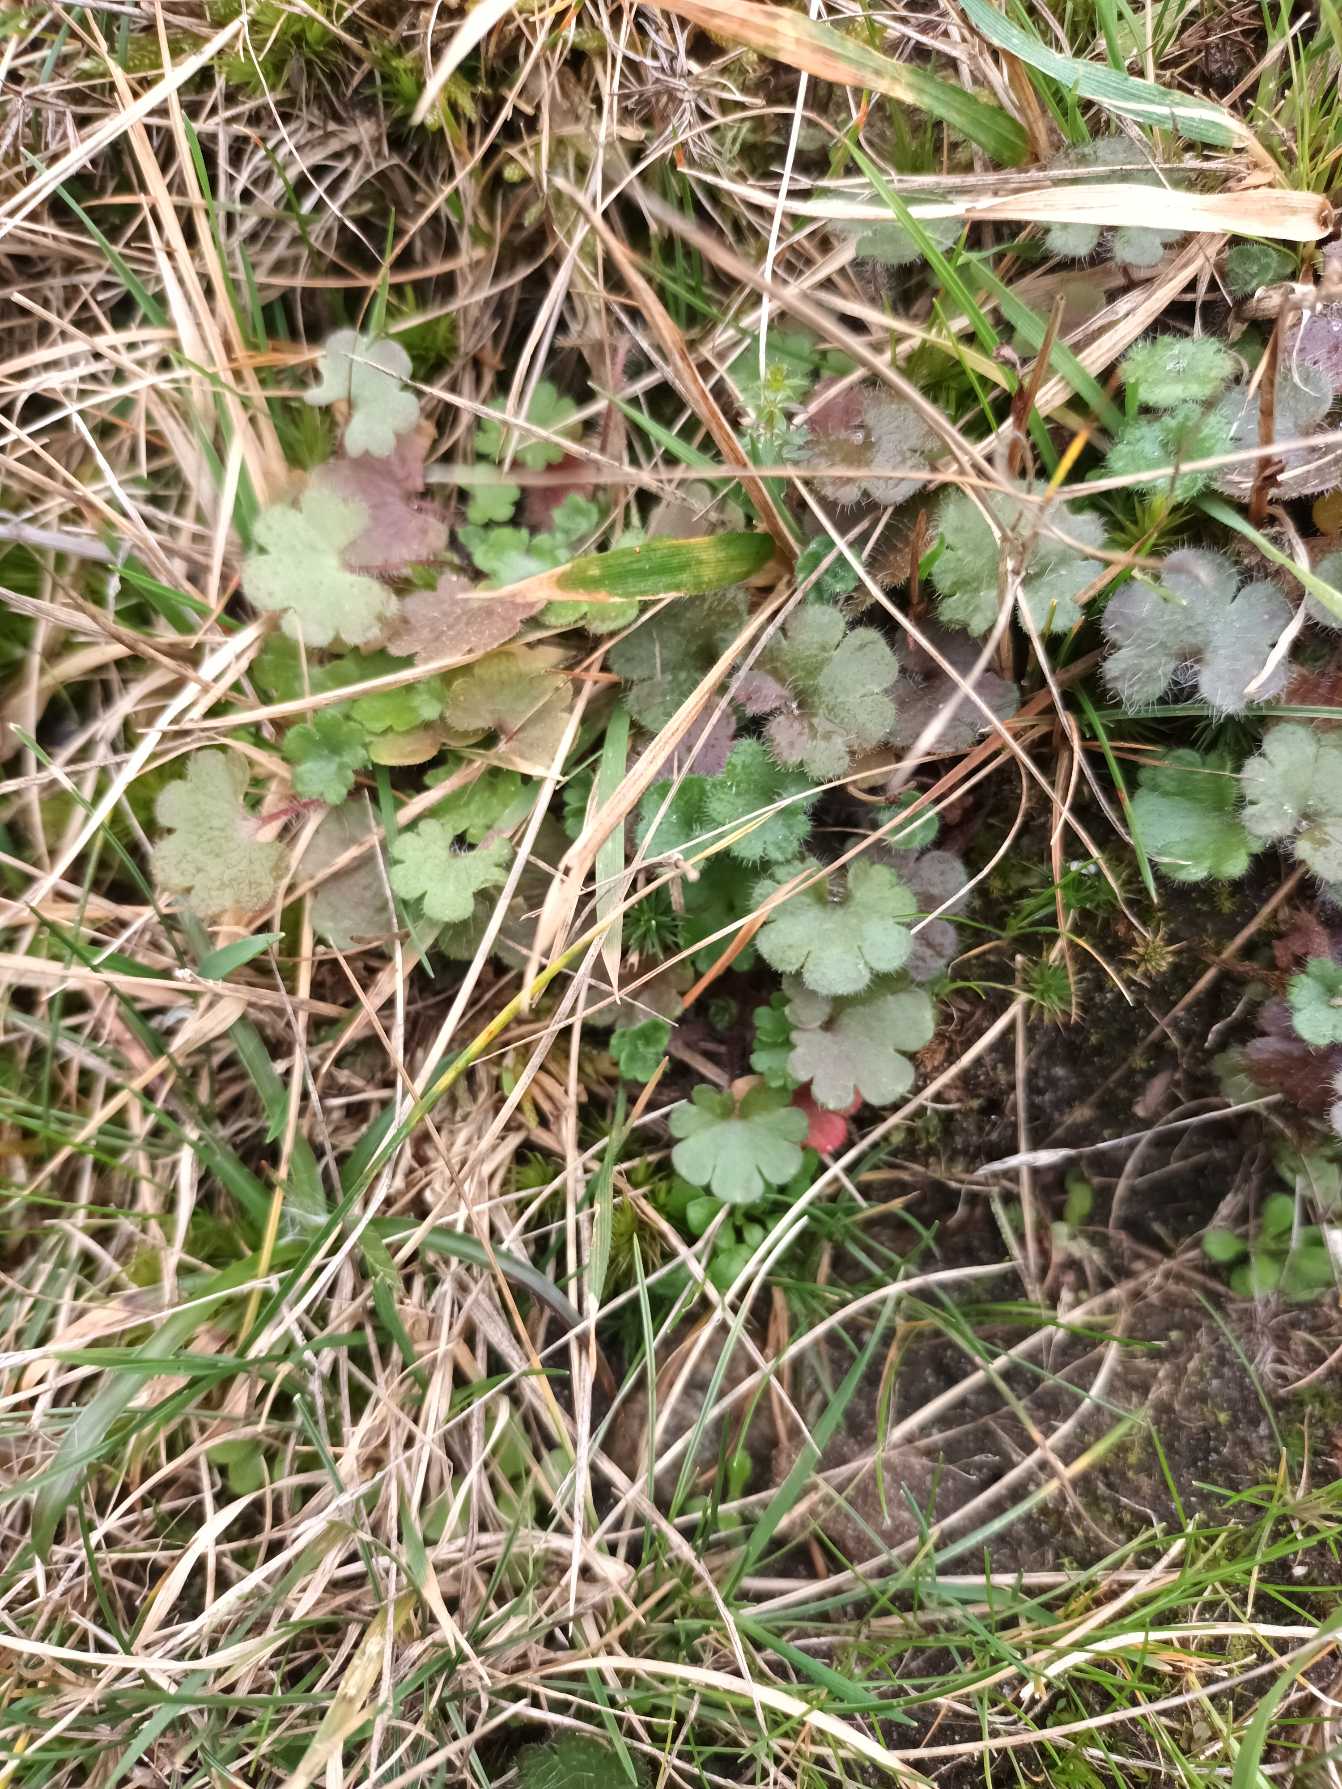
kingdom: Plantae
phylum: Tracheophyta
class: Magnoliopsida
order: Saxifragales
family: Saxifragaceae
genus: Saxifraga
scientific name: Saxifraga granulata
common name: Kornet stenbræk
